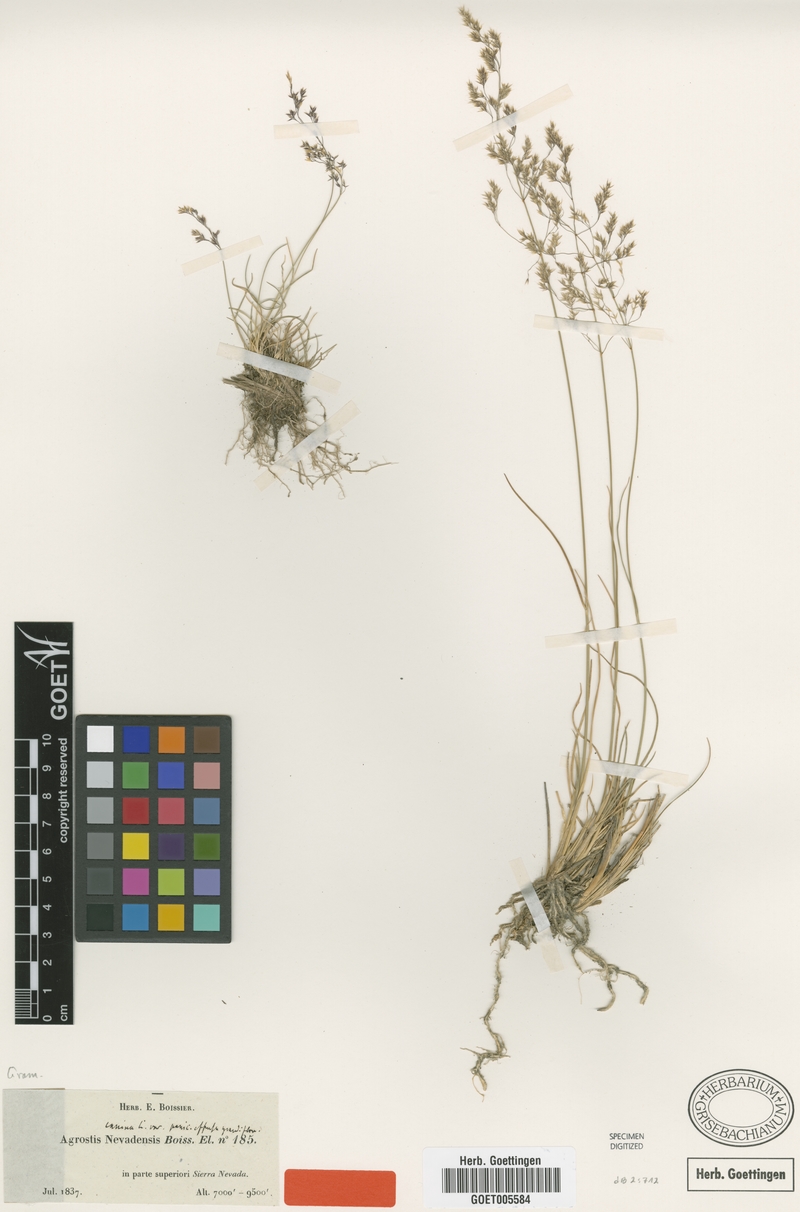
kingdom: Plantae
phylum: Tracheophyta
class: Liliopsida
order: Poales
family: Poaceae
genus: Agrostis
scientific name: Agrostis nevadensis
